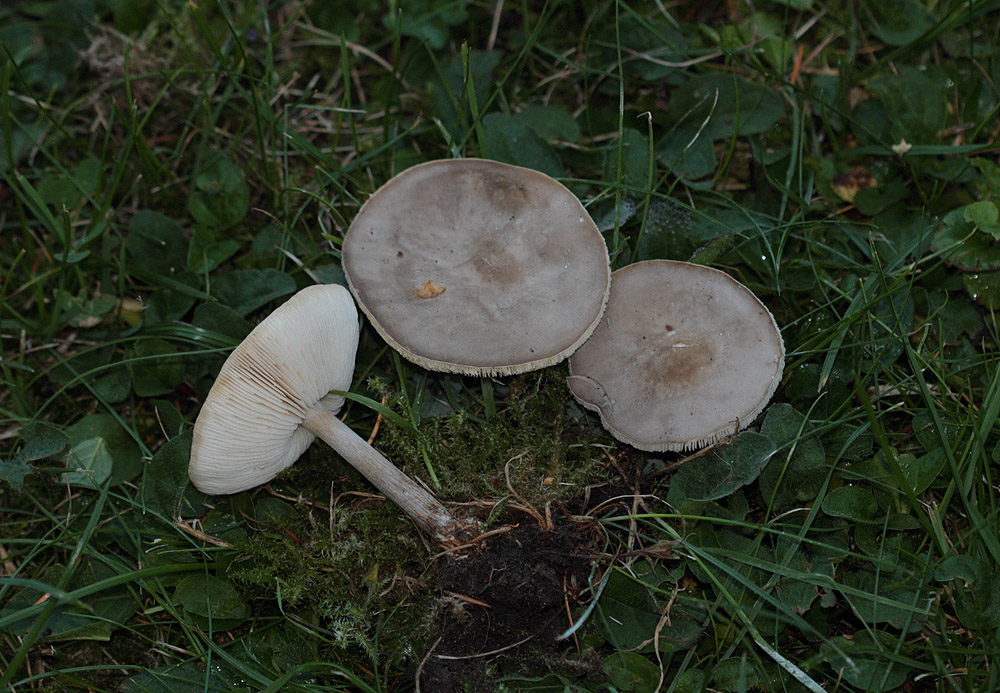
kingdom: Fungi
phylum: Basidiomycota
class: Agaricomycetes
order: Agaricales
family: Tricholomataceae
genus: Melanoleuca
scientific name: Melanoleuca bataillei
